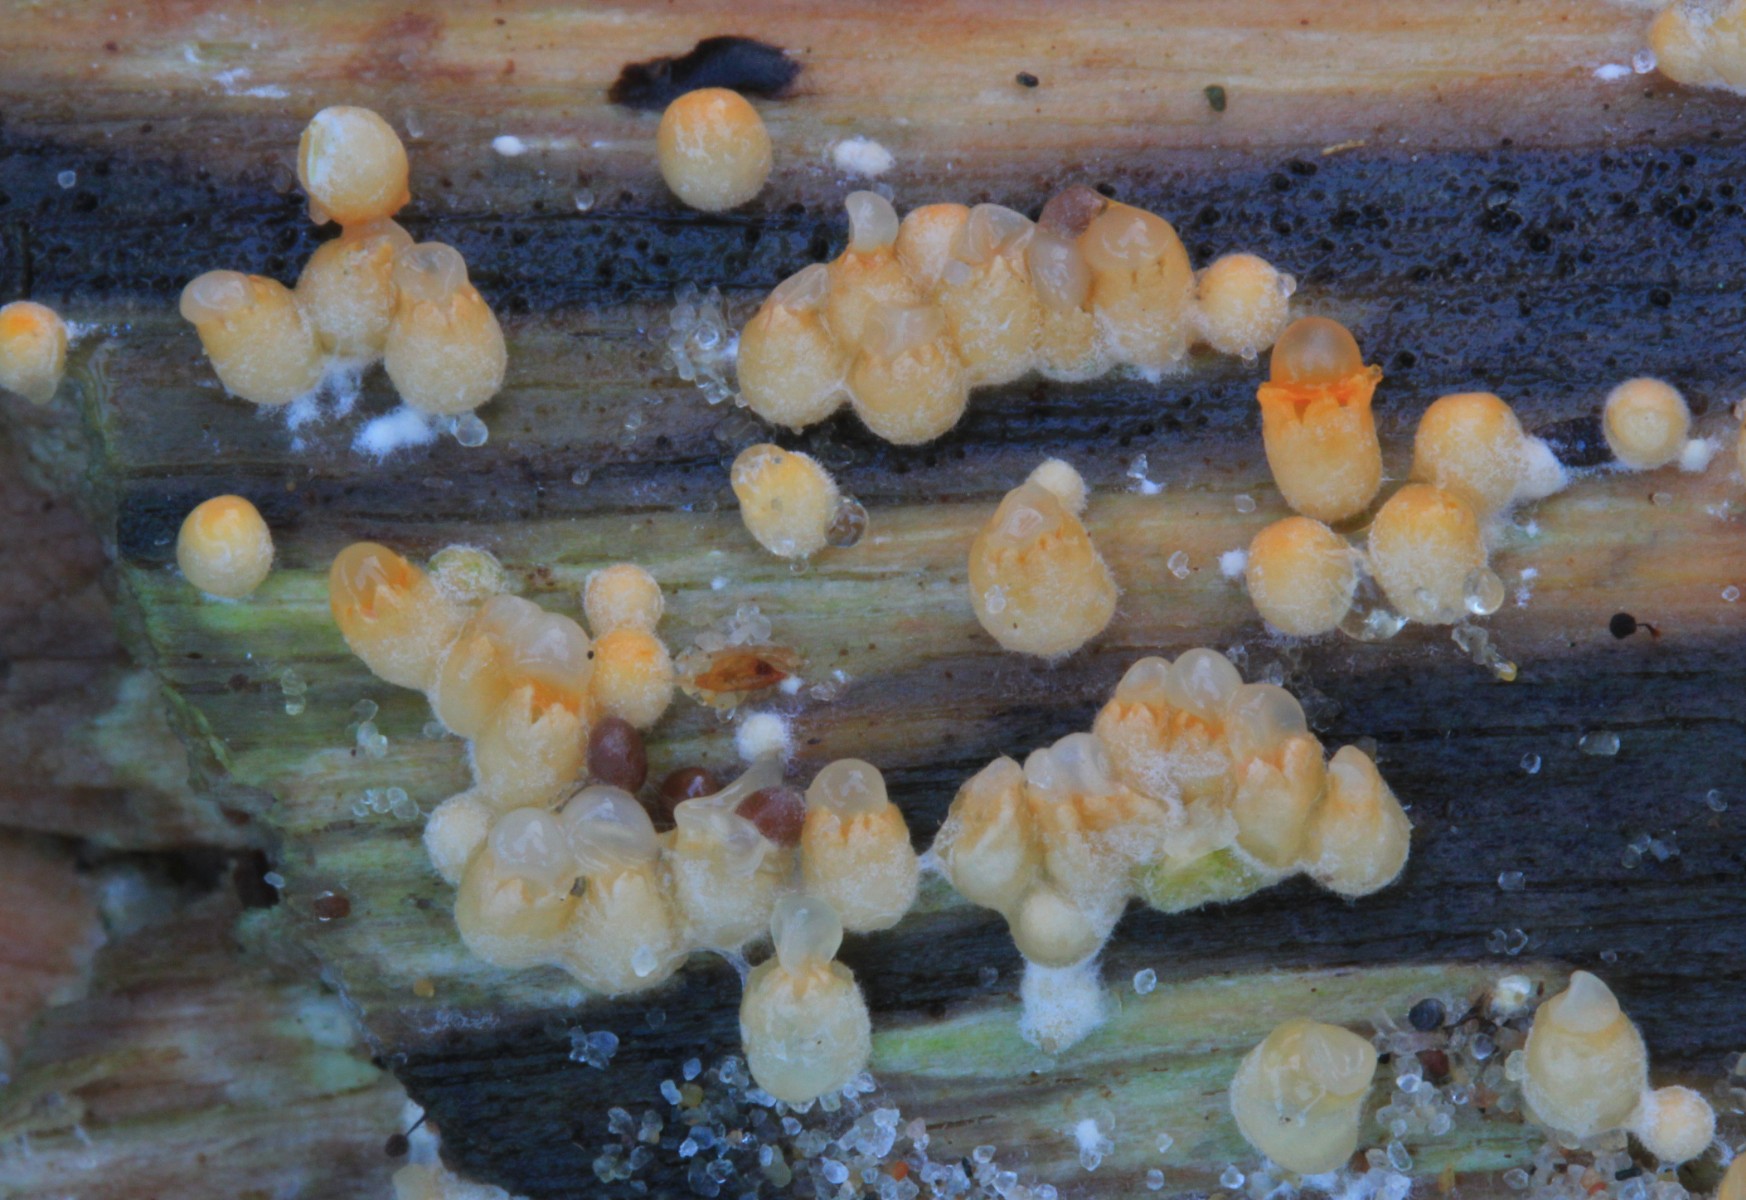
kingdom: Fungi
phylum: Basidiomycota
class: Agaricomycetes
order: Geastrales
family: Geastraceae
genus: Sphaerobolus
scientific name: Sphaerobolus stellatus
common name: bombekaster
